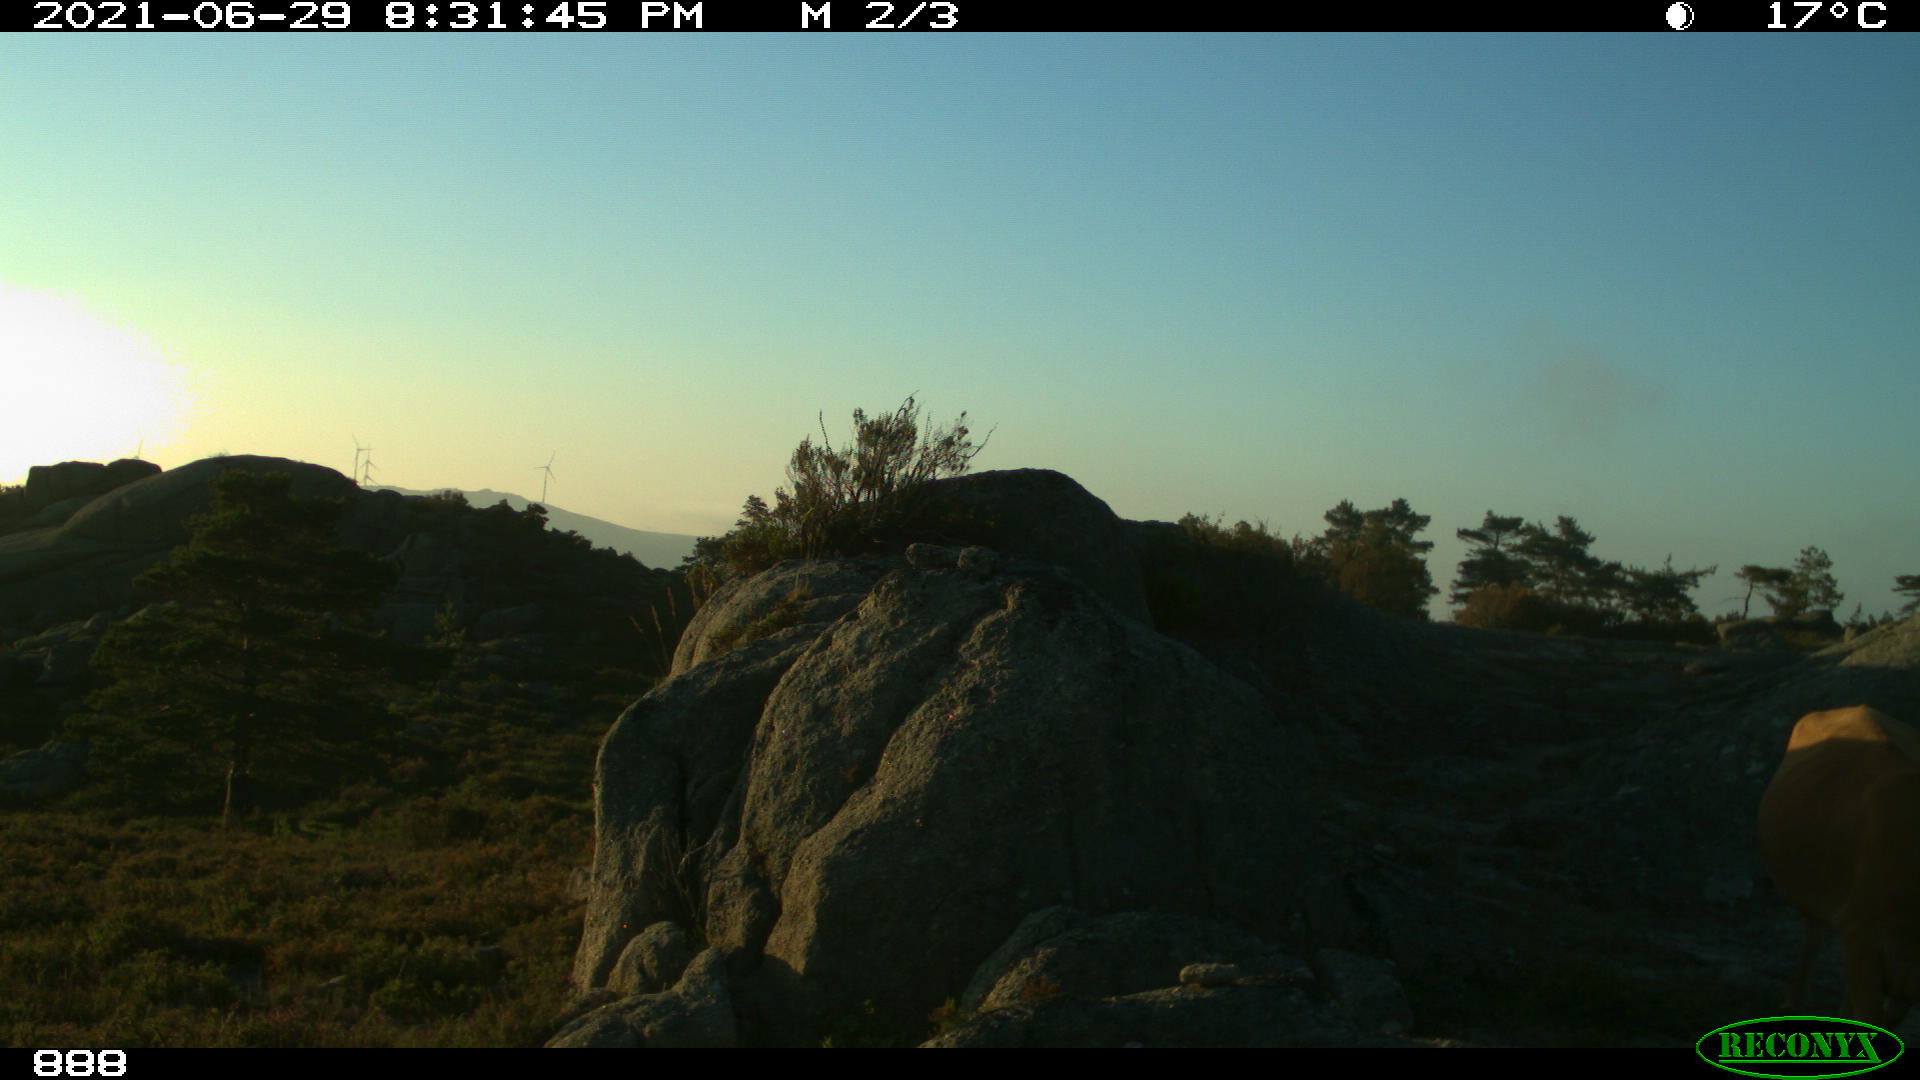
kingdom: Animalia
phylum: Chordata
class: Mammalia
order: Artiodactyla
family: Bovidae
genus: Bos
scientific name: Bos taurus
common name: Domesticated cattle
